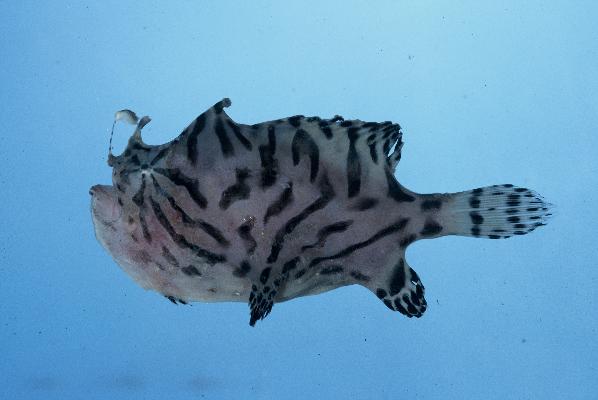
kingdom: Animalia
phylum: Chordata
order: Lophiiformes
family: Antennariidae
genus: Antennarius
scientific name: Antennarius striatus
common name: Striated frogfish
